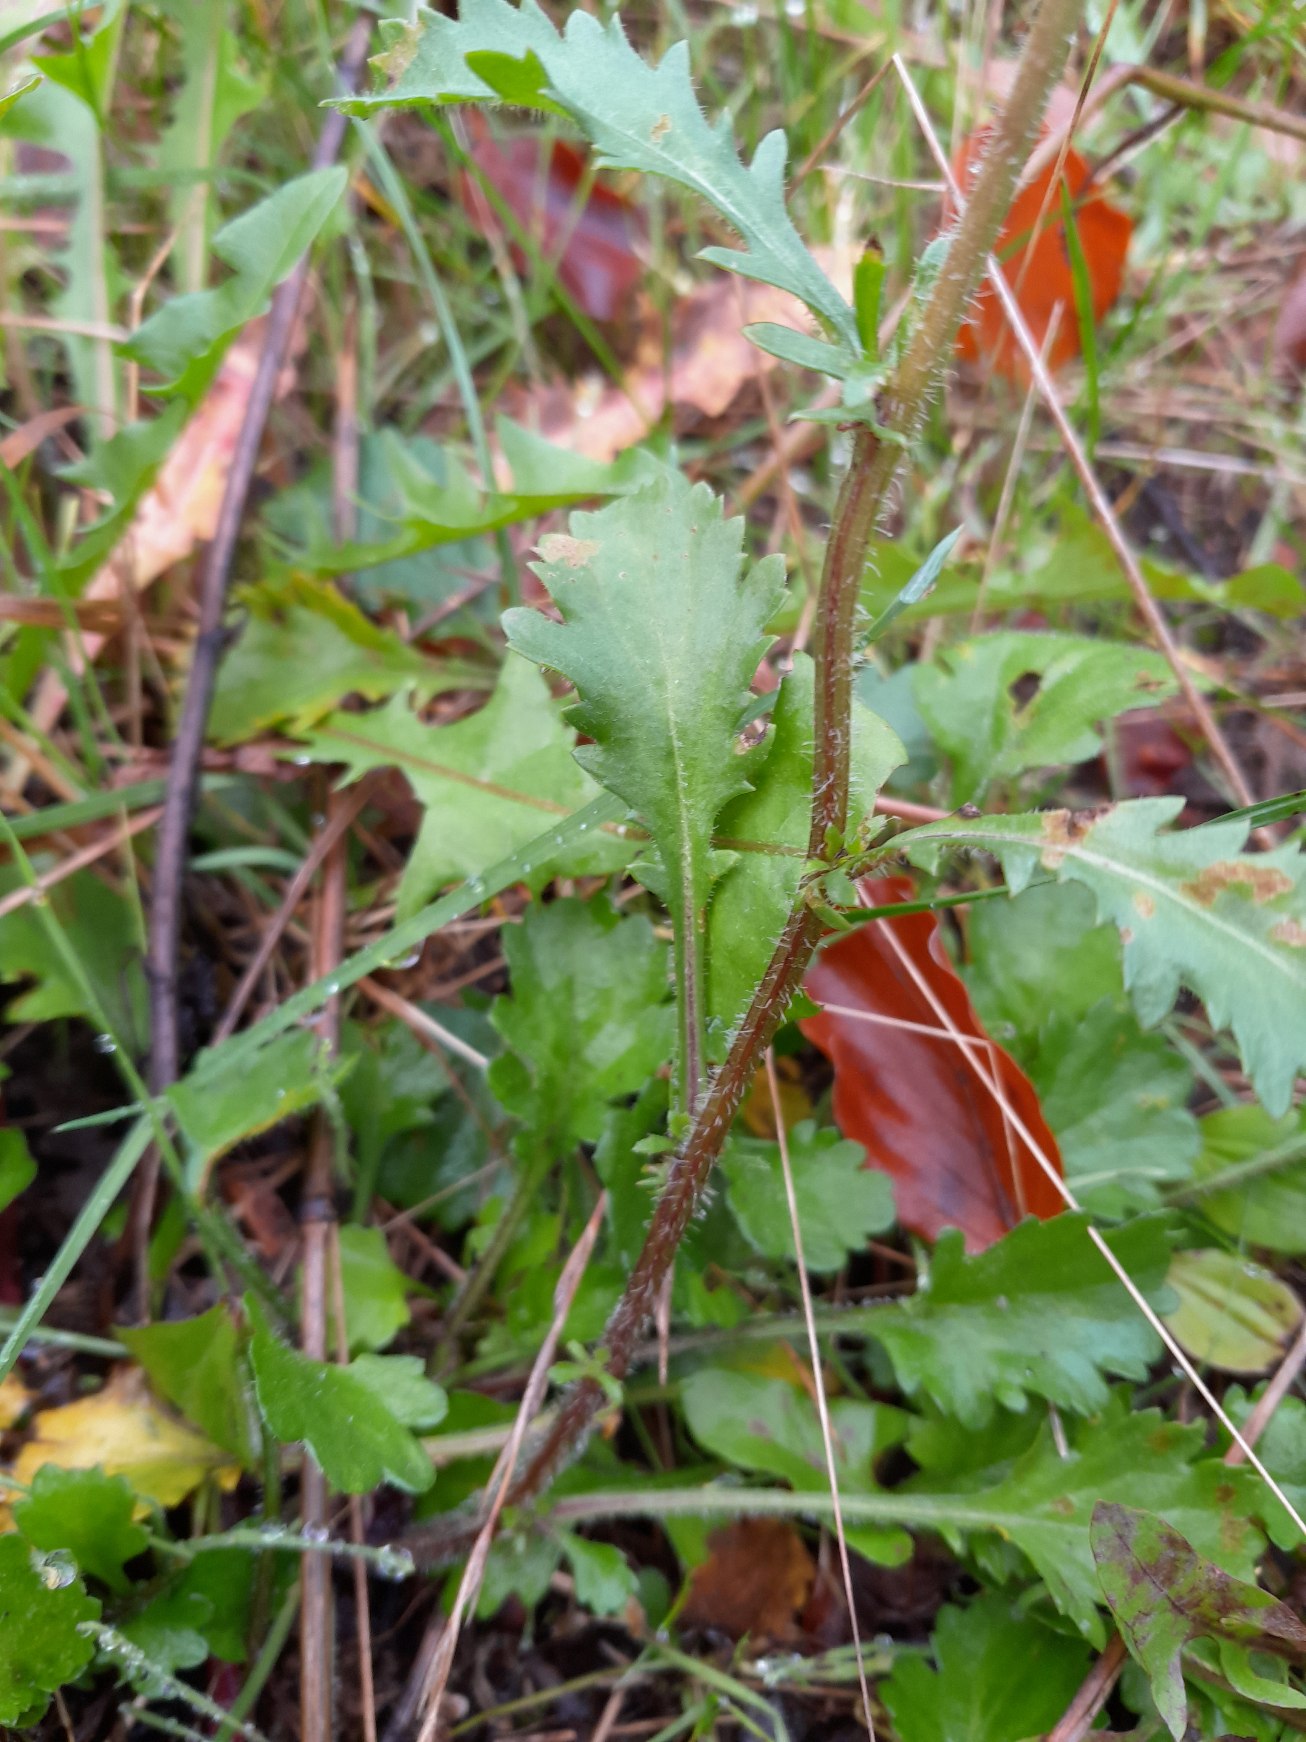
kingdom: Plantae
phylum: Tracheophyta
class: Magnoliopsida
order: Asterales
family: Asteraceae
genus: Leucanthemum
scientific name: Leucanthemum vulgare
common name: Hvid okseøje
